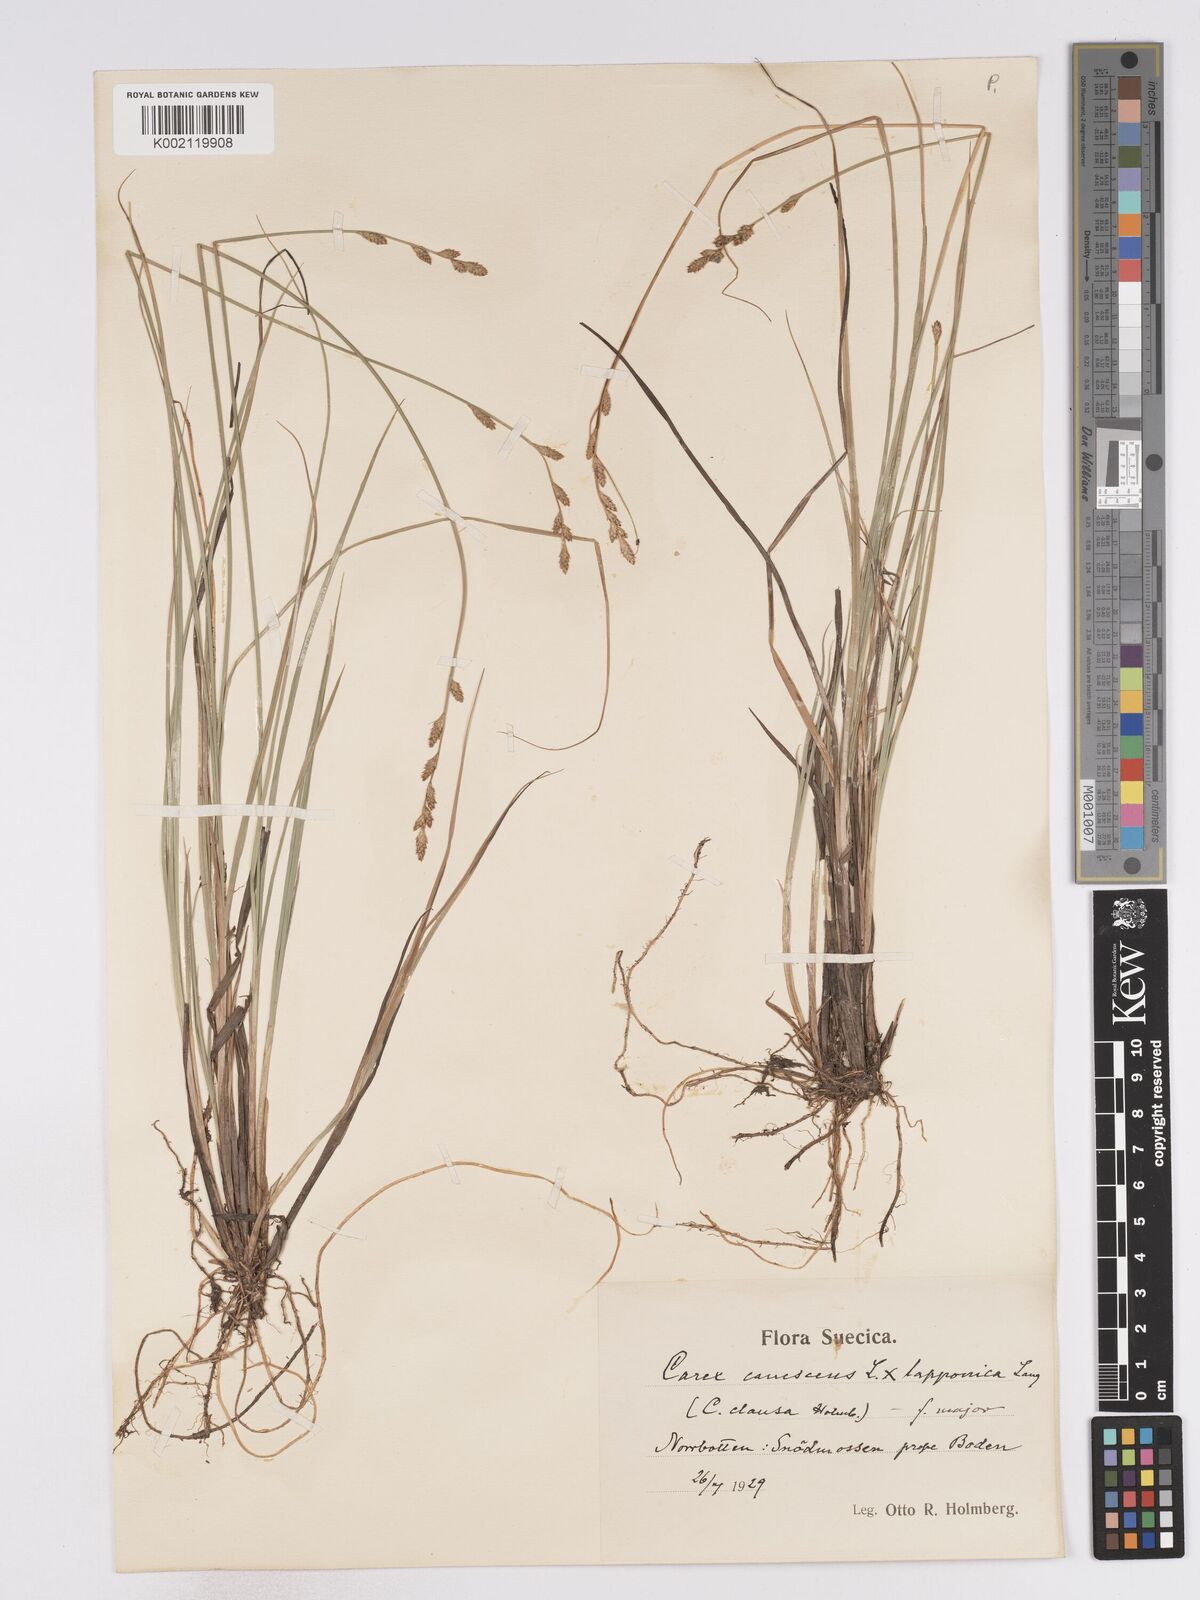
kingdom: Plantae
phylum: Tracheophyta
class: Liliopsida
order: Poales
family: Cyperaceae
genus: Carex
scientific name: Carex curta
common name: White sedge
